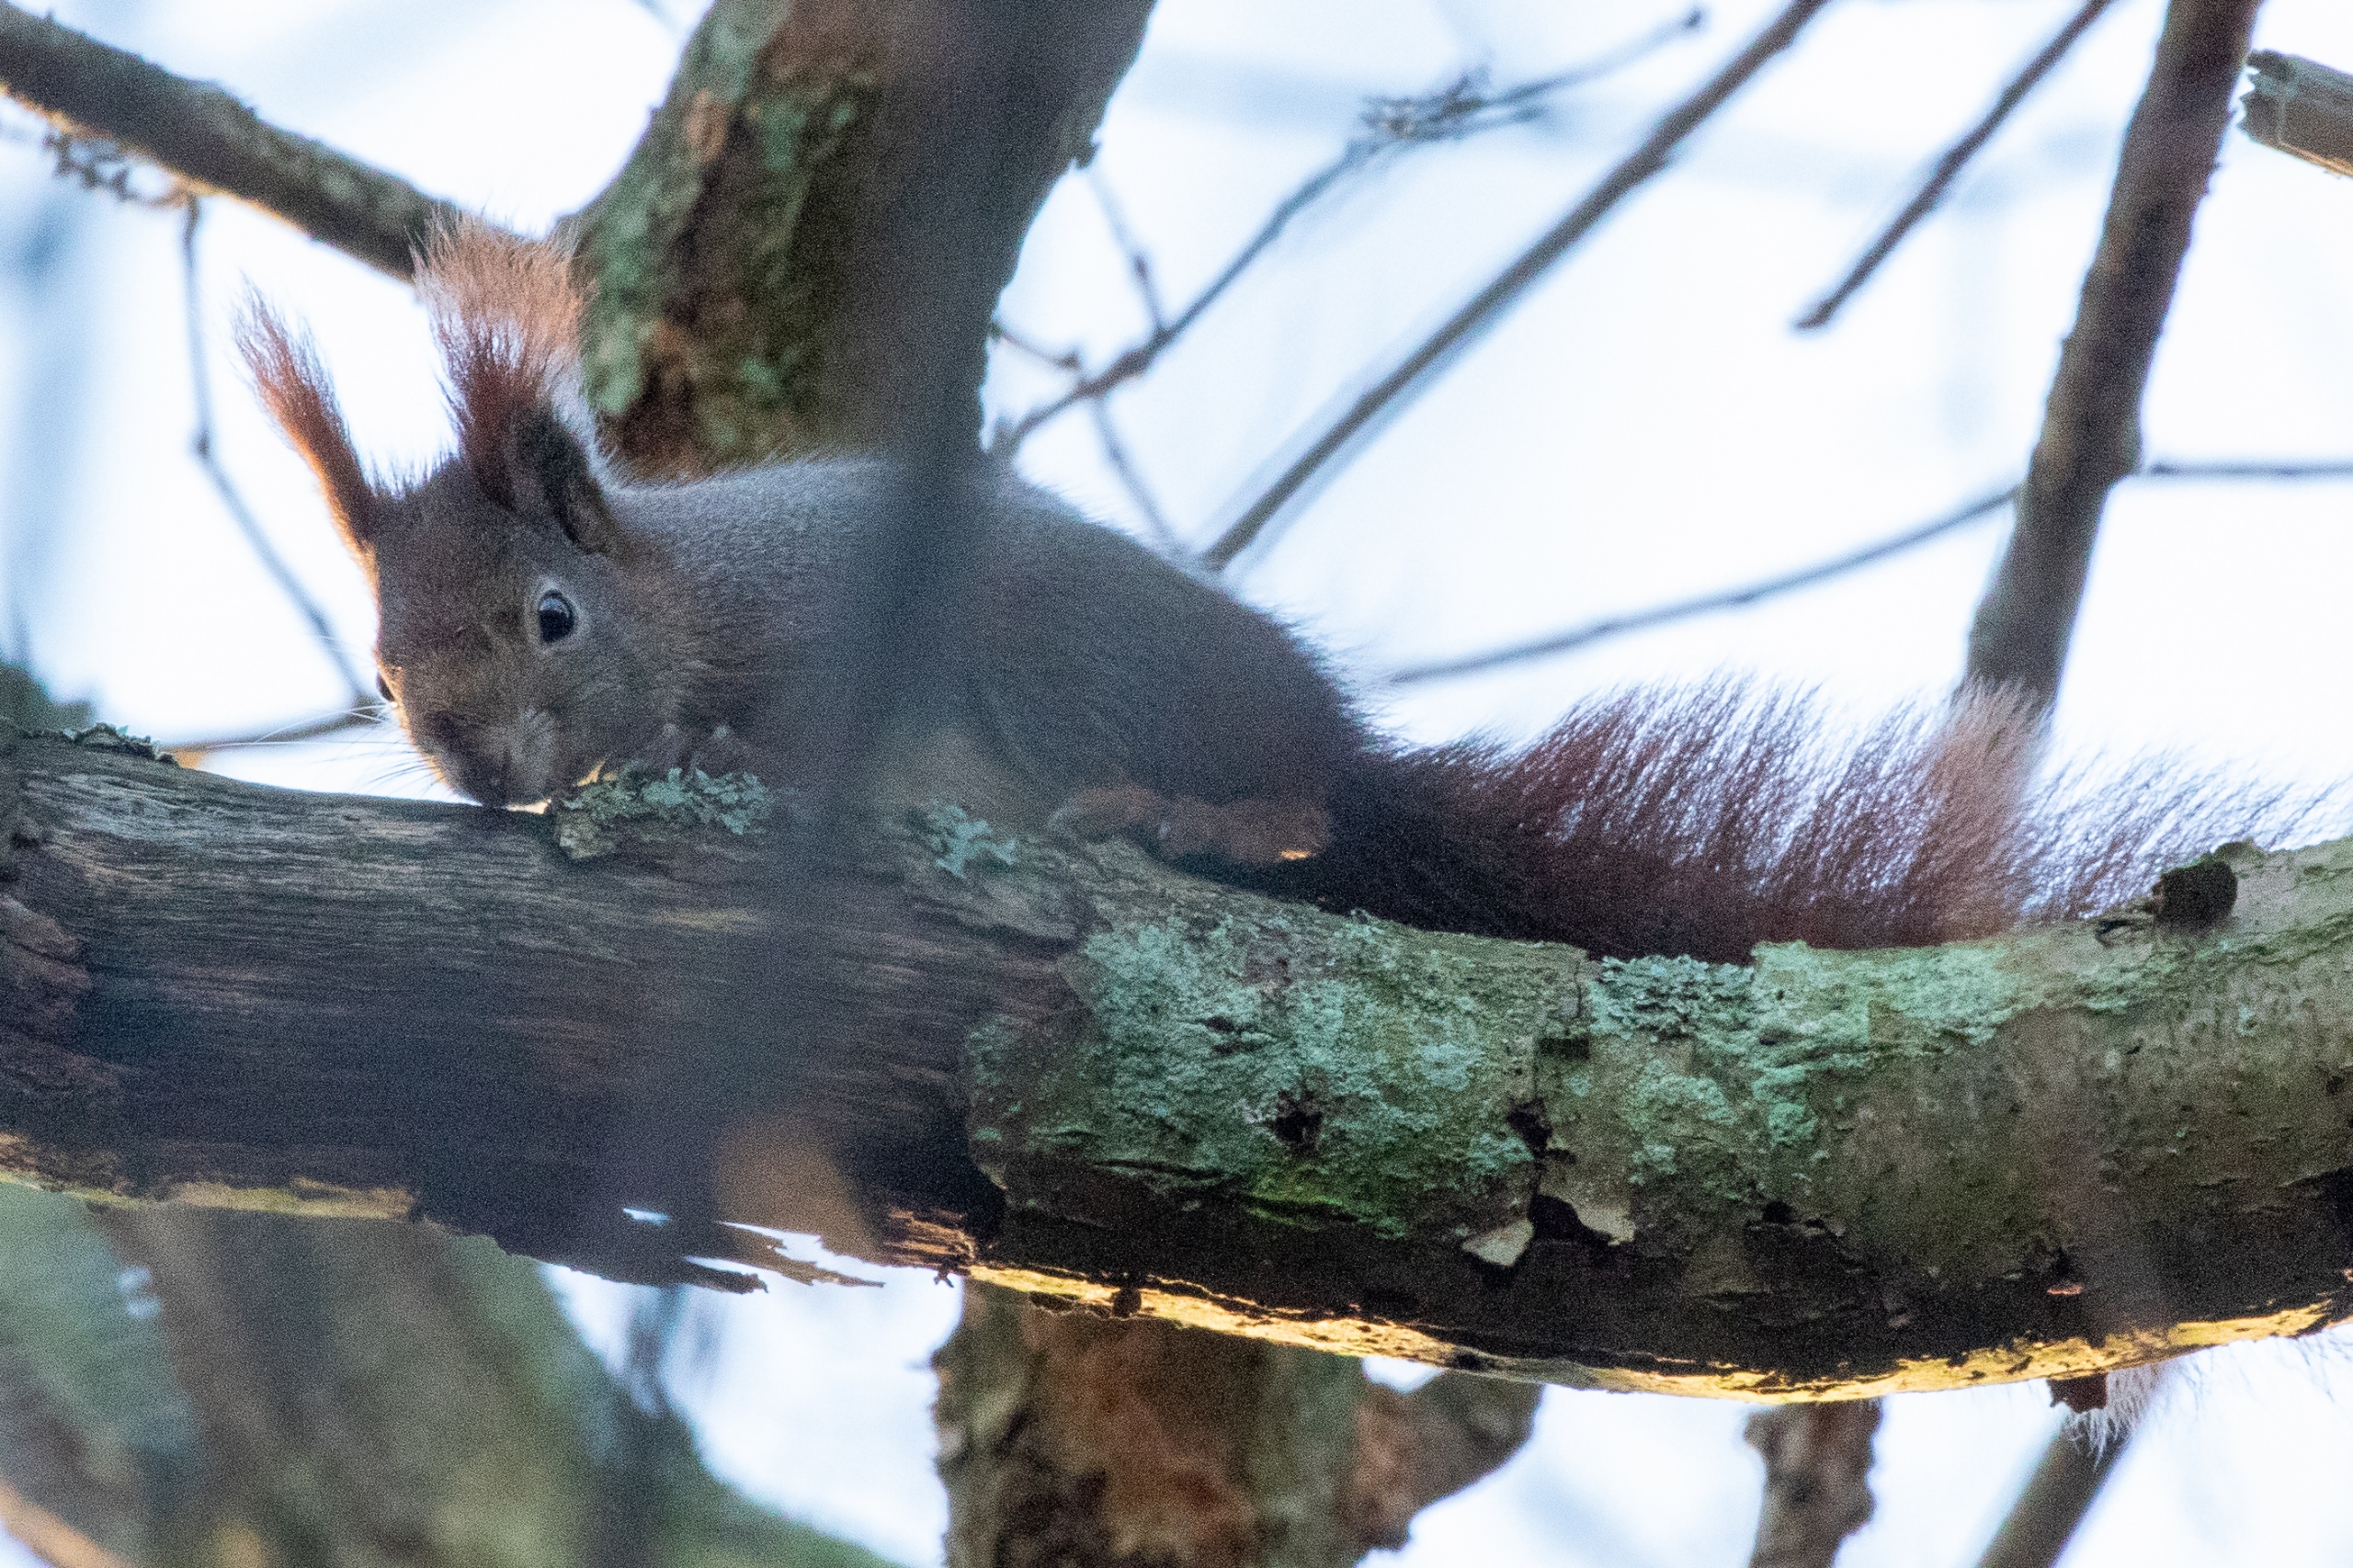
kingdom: Animalia
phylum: Chordata
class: Mammalia
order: Rodentia
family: Sciuridae
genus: Sciurus
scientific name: Sciurus vulgaris
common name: Egern
